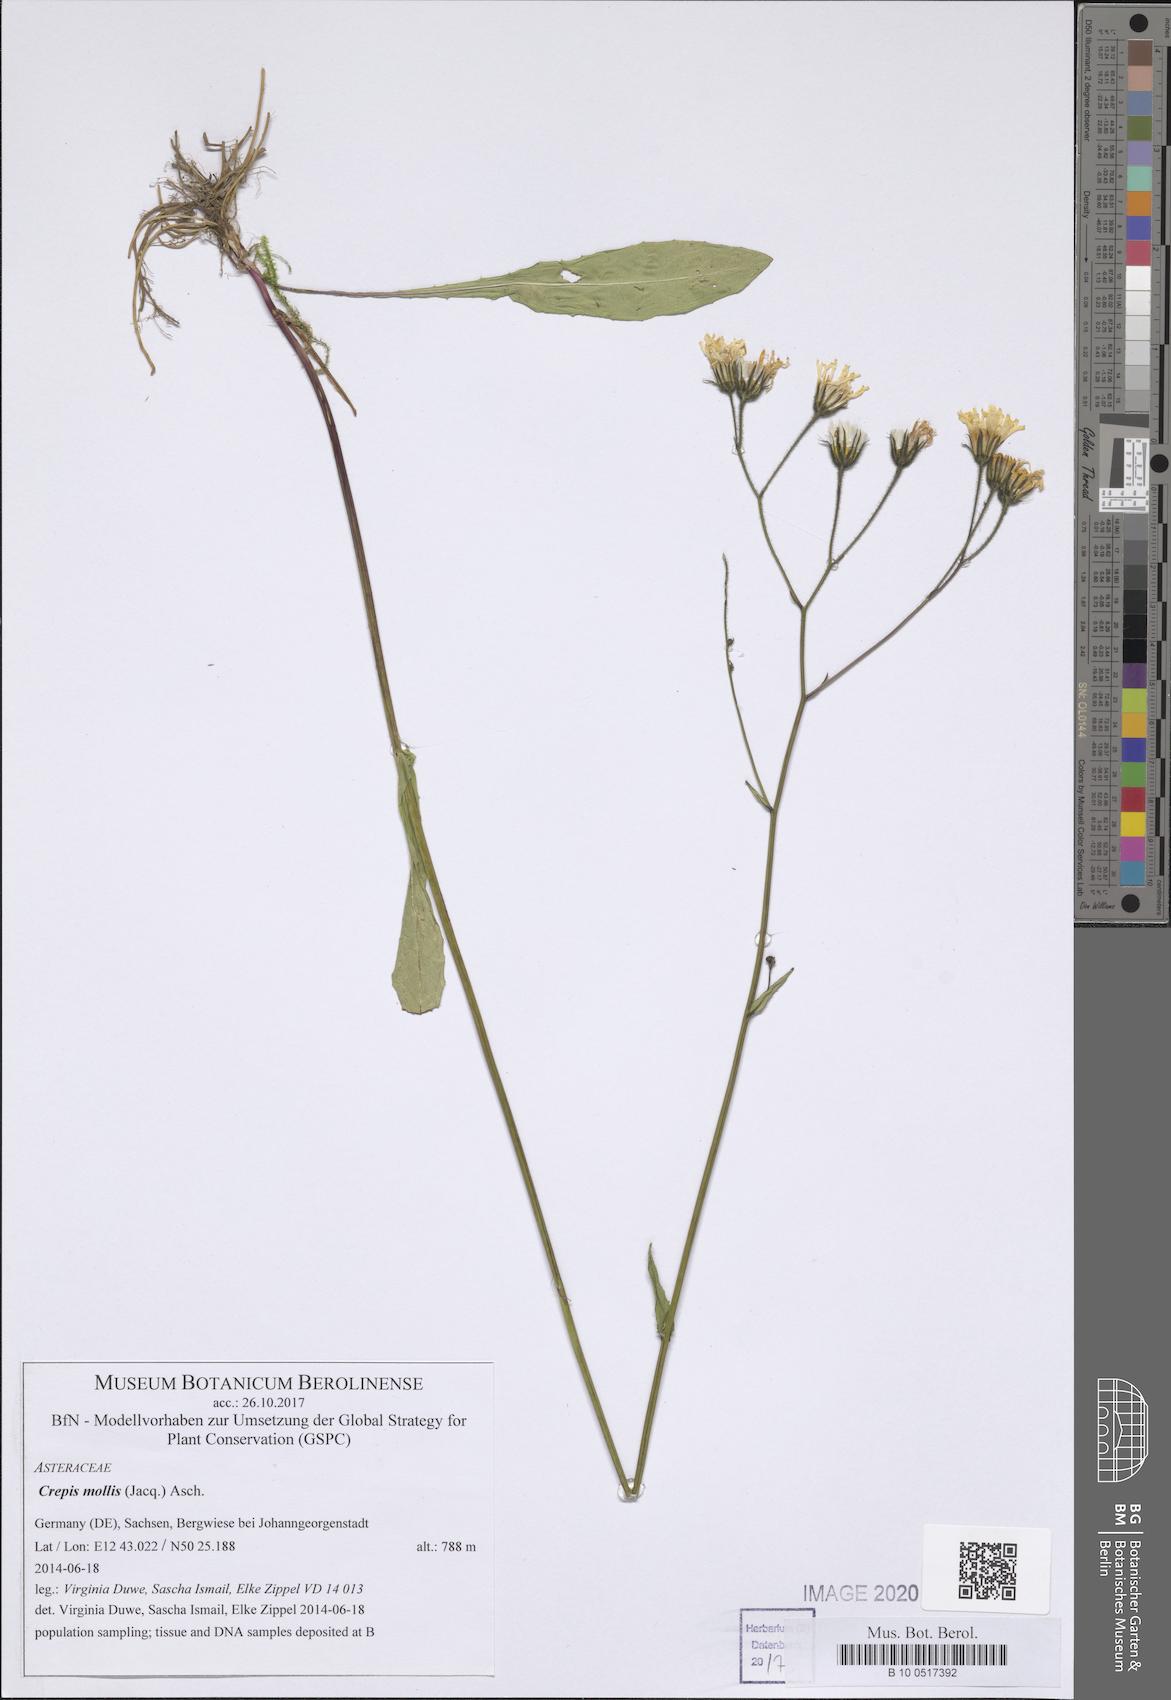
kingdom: Plantae
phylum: Tracheophyta
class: Magnoliopsida
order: Asterales
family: Asteraceae
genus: Crepis
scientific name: Crepis mollis
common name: Northern hawk's-beard
